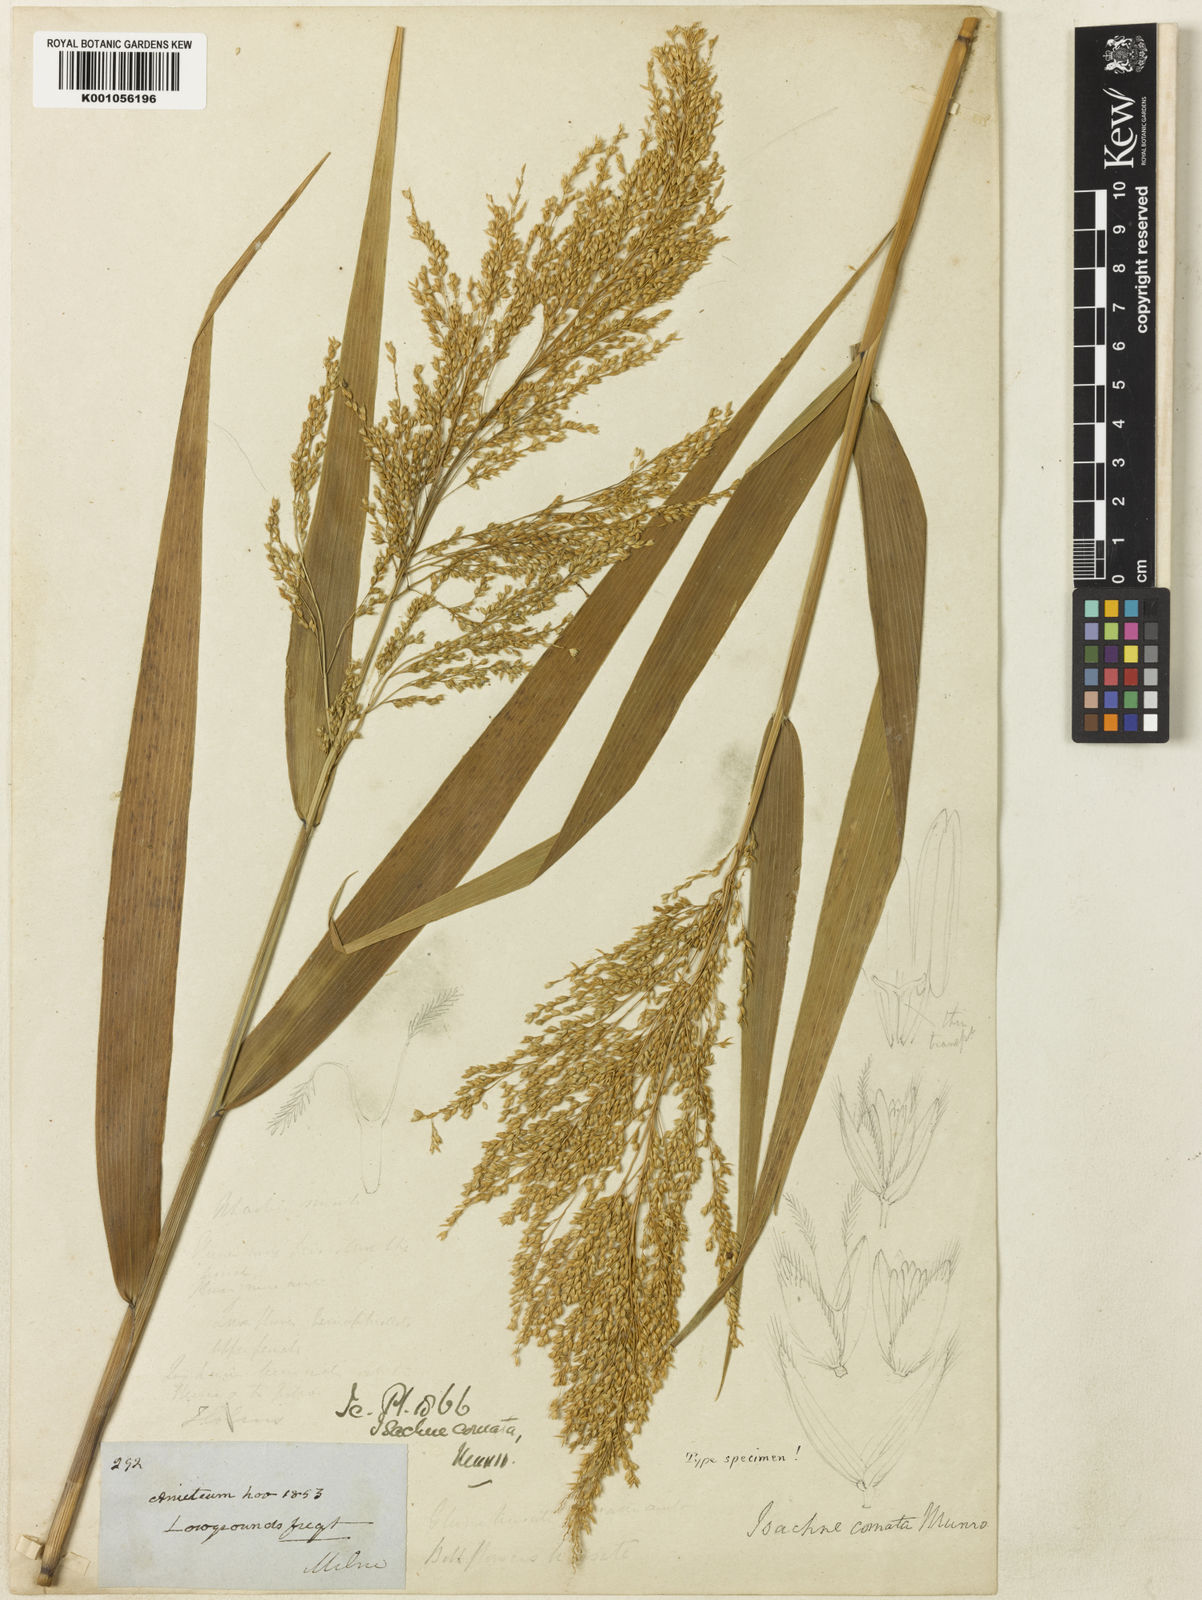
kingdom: Plantae
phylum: Tracheophyta
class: Liliopsida
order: Poales
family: Poaceae
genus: Isachne
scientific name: Isachne comata
